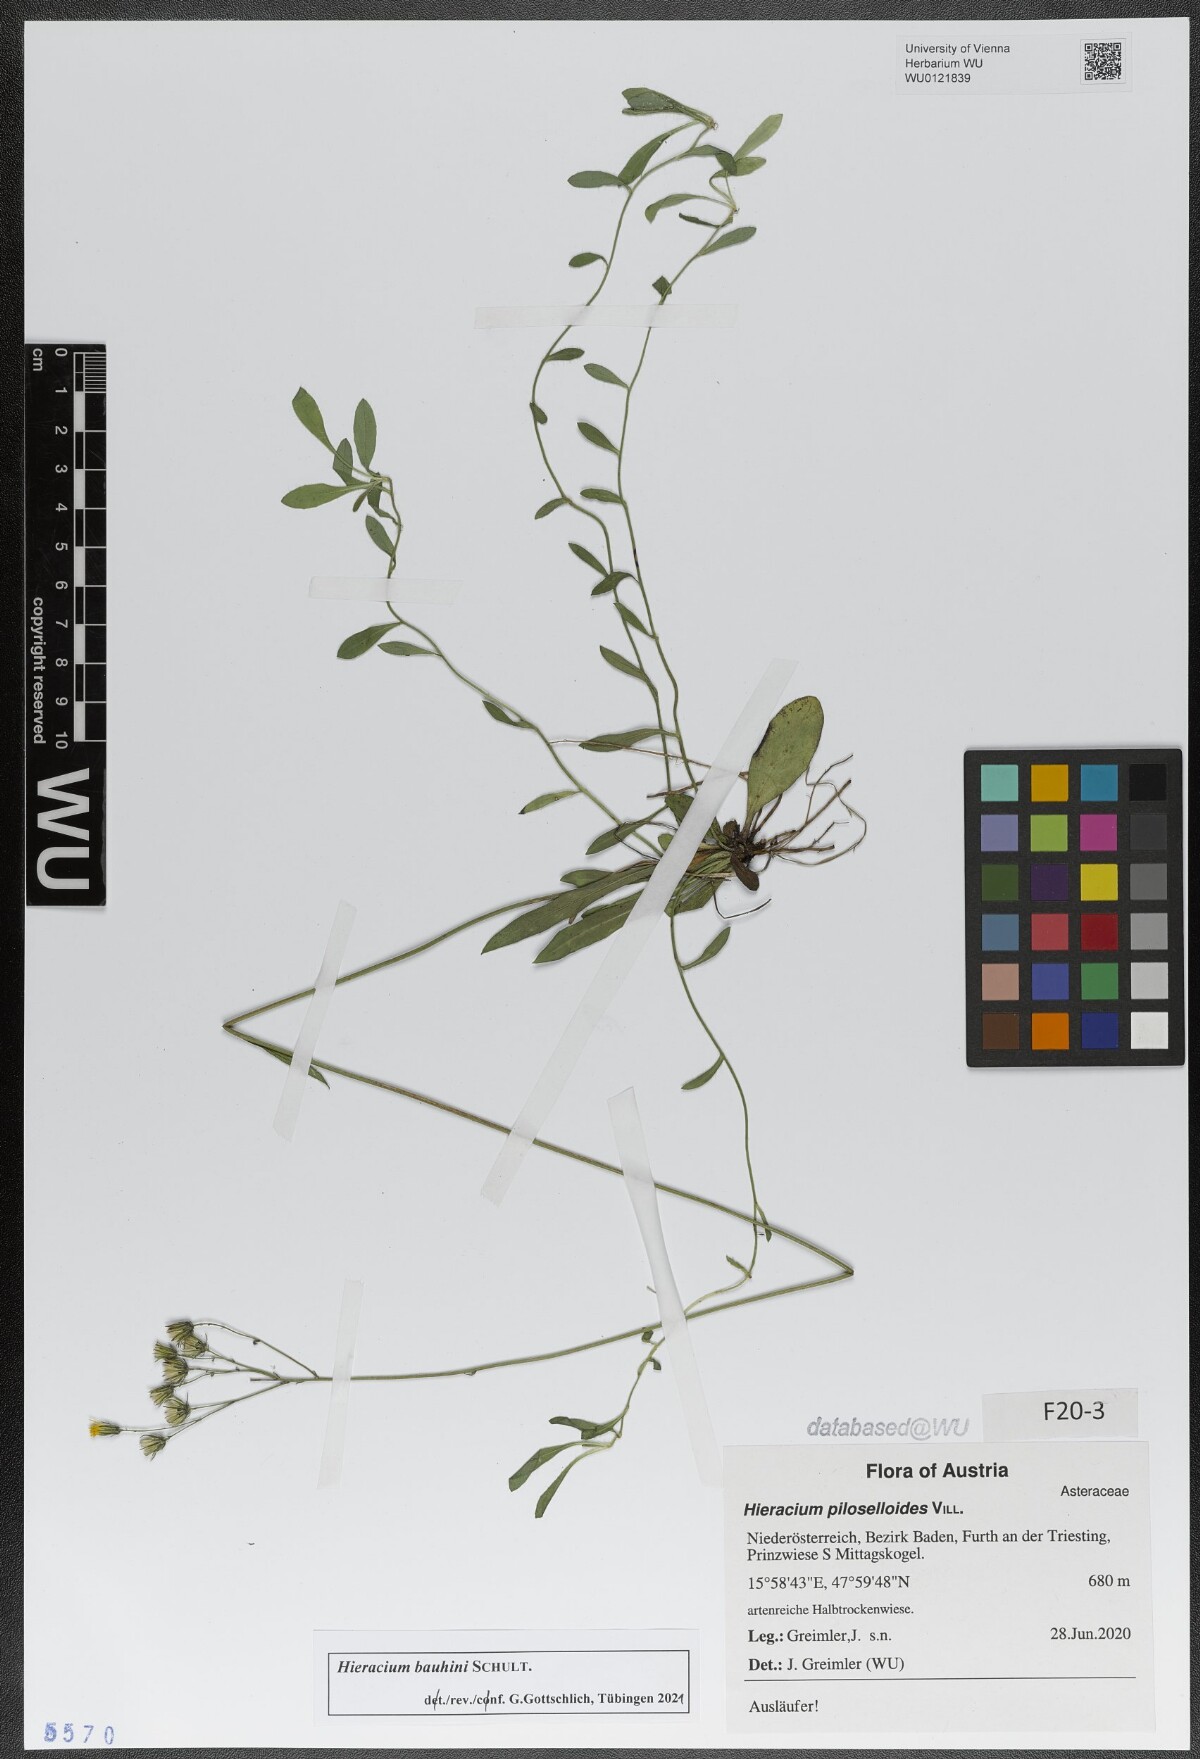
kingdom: Plantae
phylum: Tracheophyta
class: Magnoliopsida
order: Asterales
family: Asteraceae
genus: Pilosella
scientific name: Pilosella bauhini
